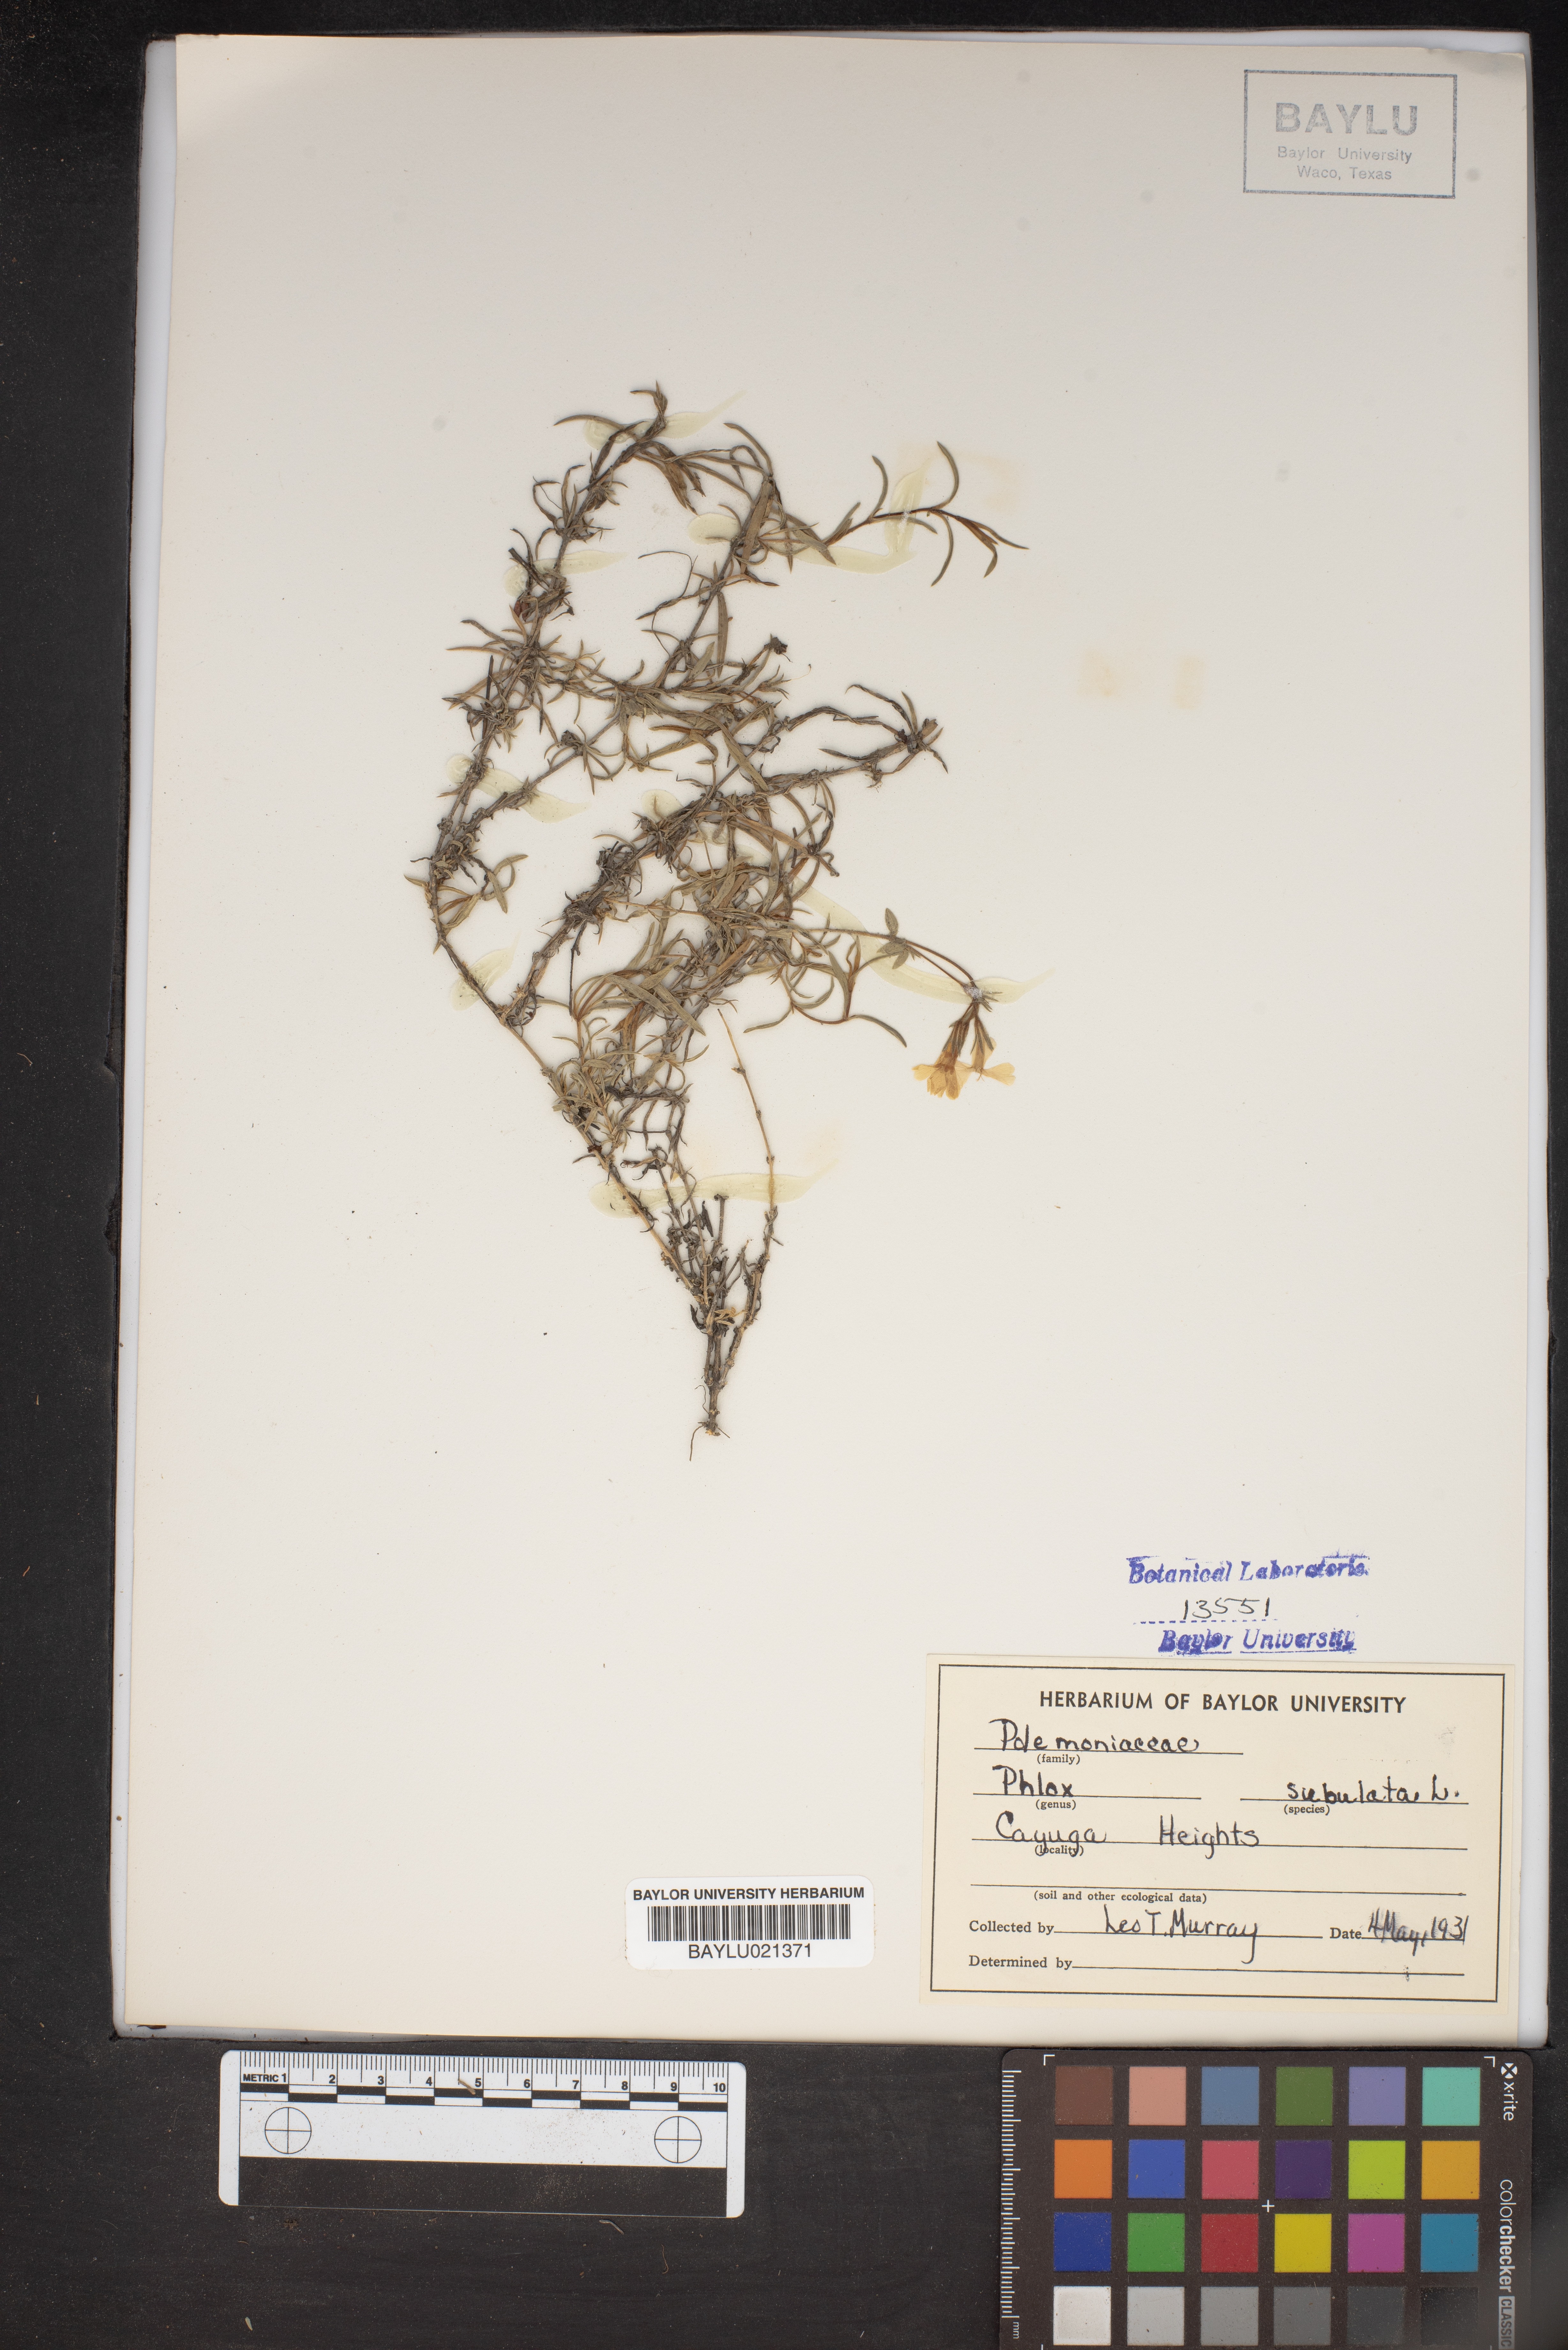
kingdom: Plantae
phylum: Tracheophyta
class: Magnoliopsida
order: Ericales
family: Polemoniaceae
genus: Phlox
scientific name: Phlox subulata
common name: Moss phlox
